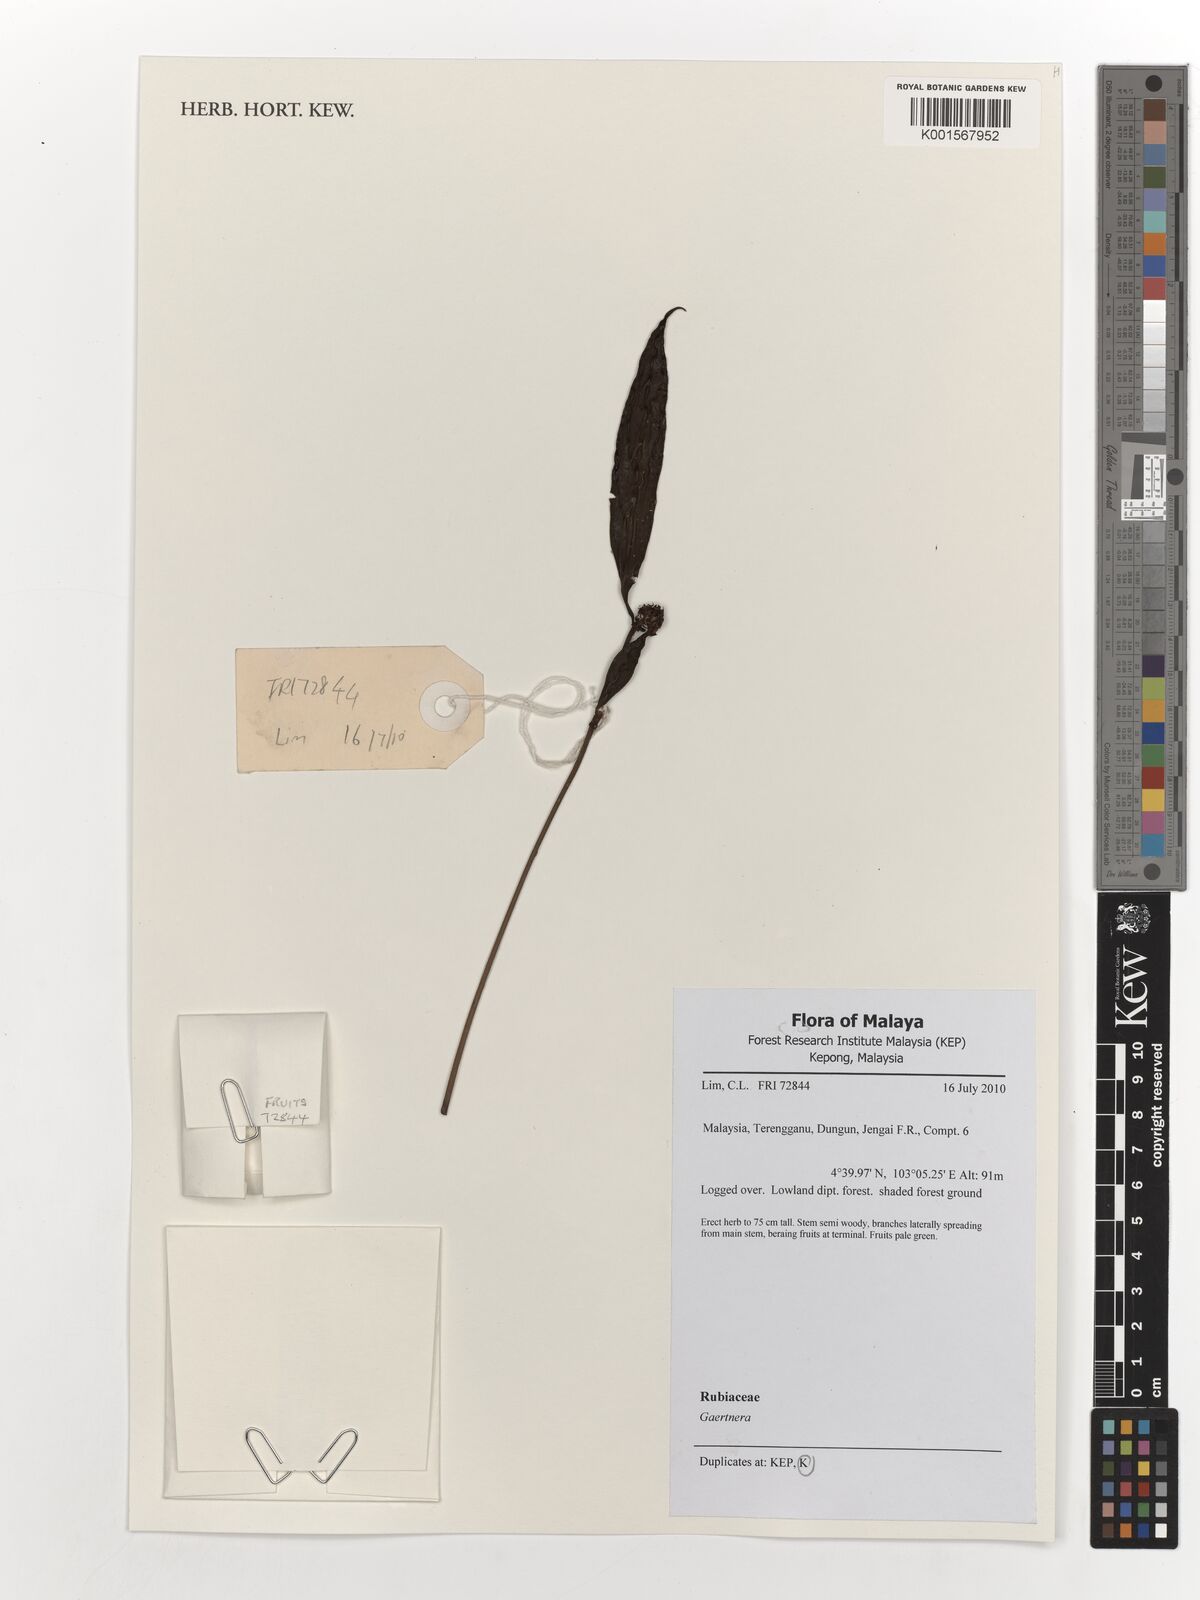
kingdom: Plantae
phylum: Tracheophyta
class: Magnoliopsida
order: Gentianales
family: Rubiaceae
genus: Gaertnera
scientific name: Gaertnera
